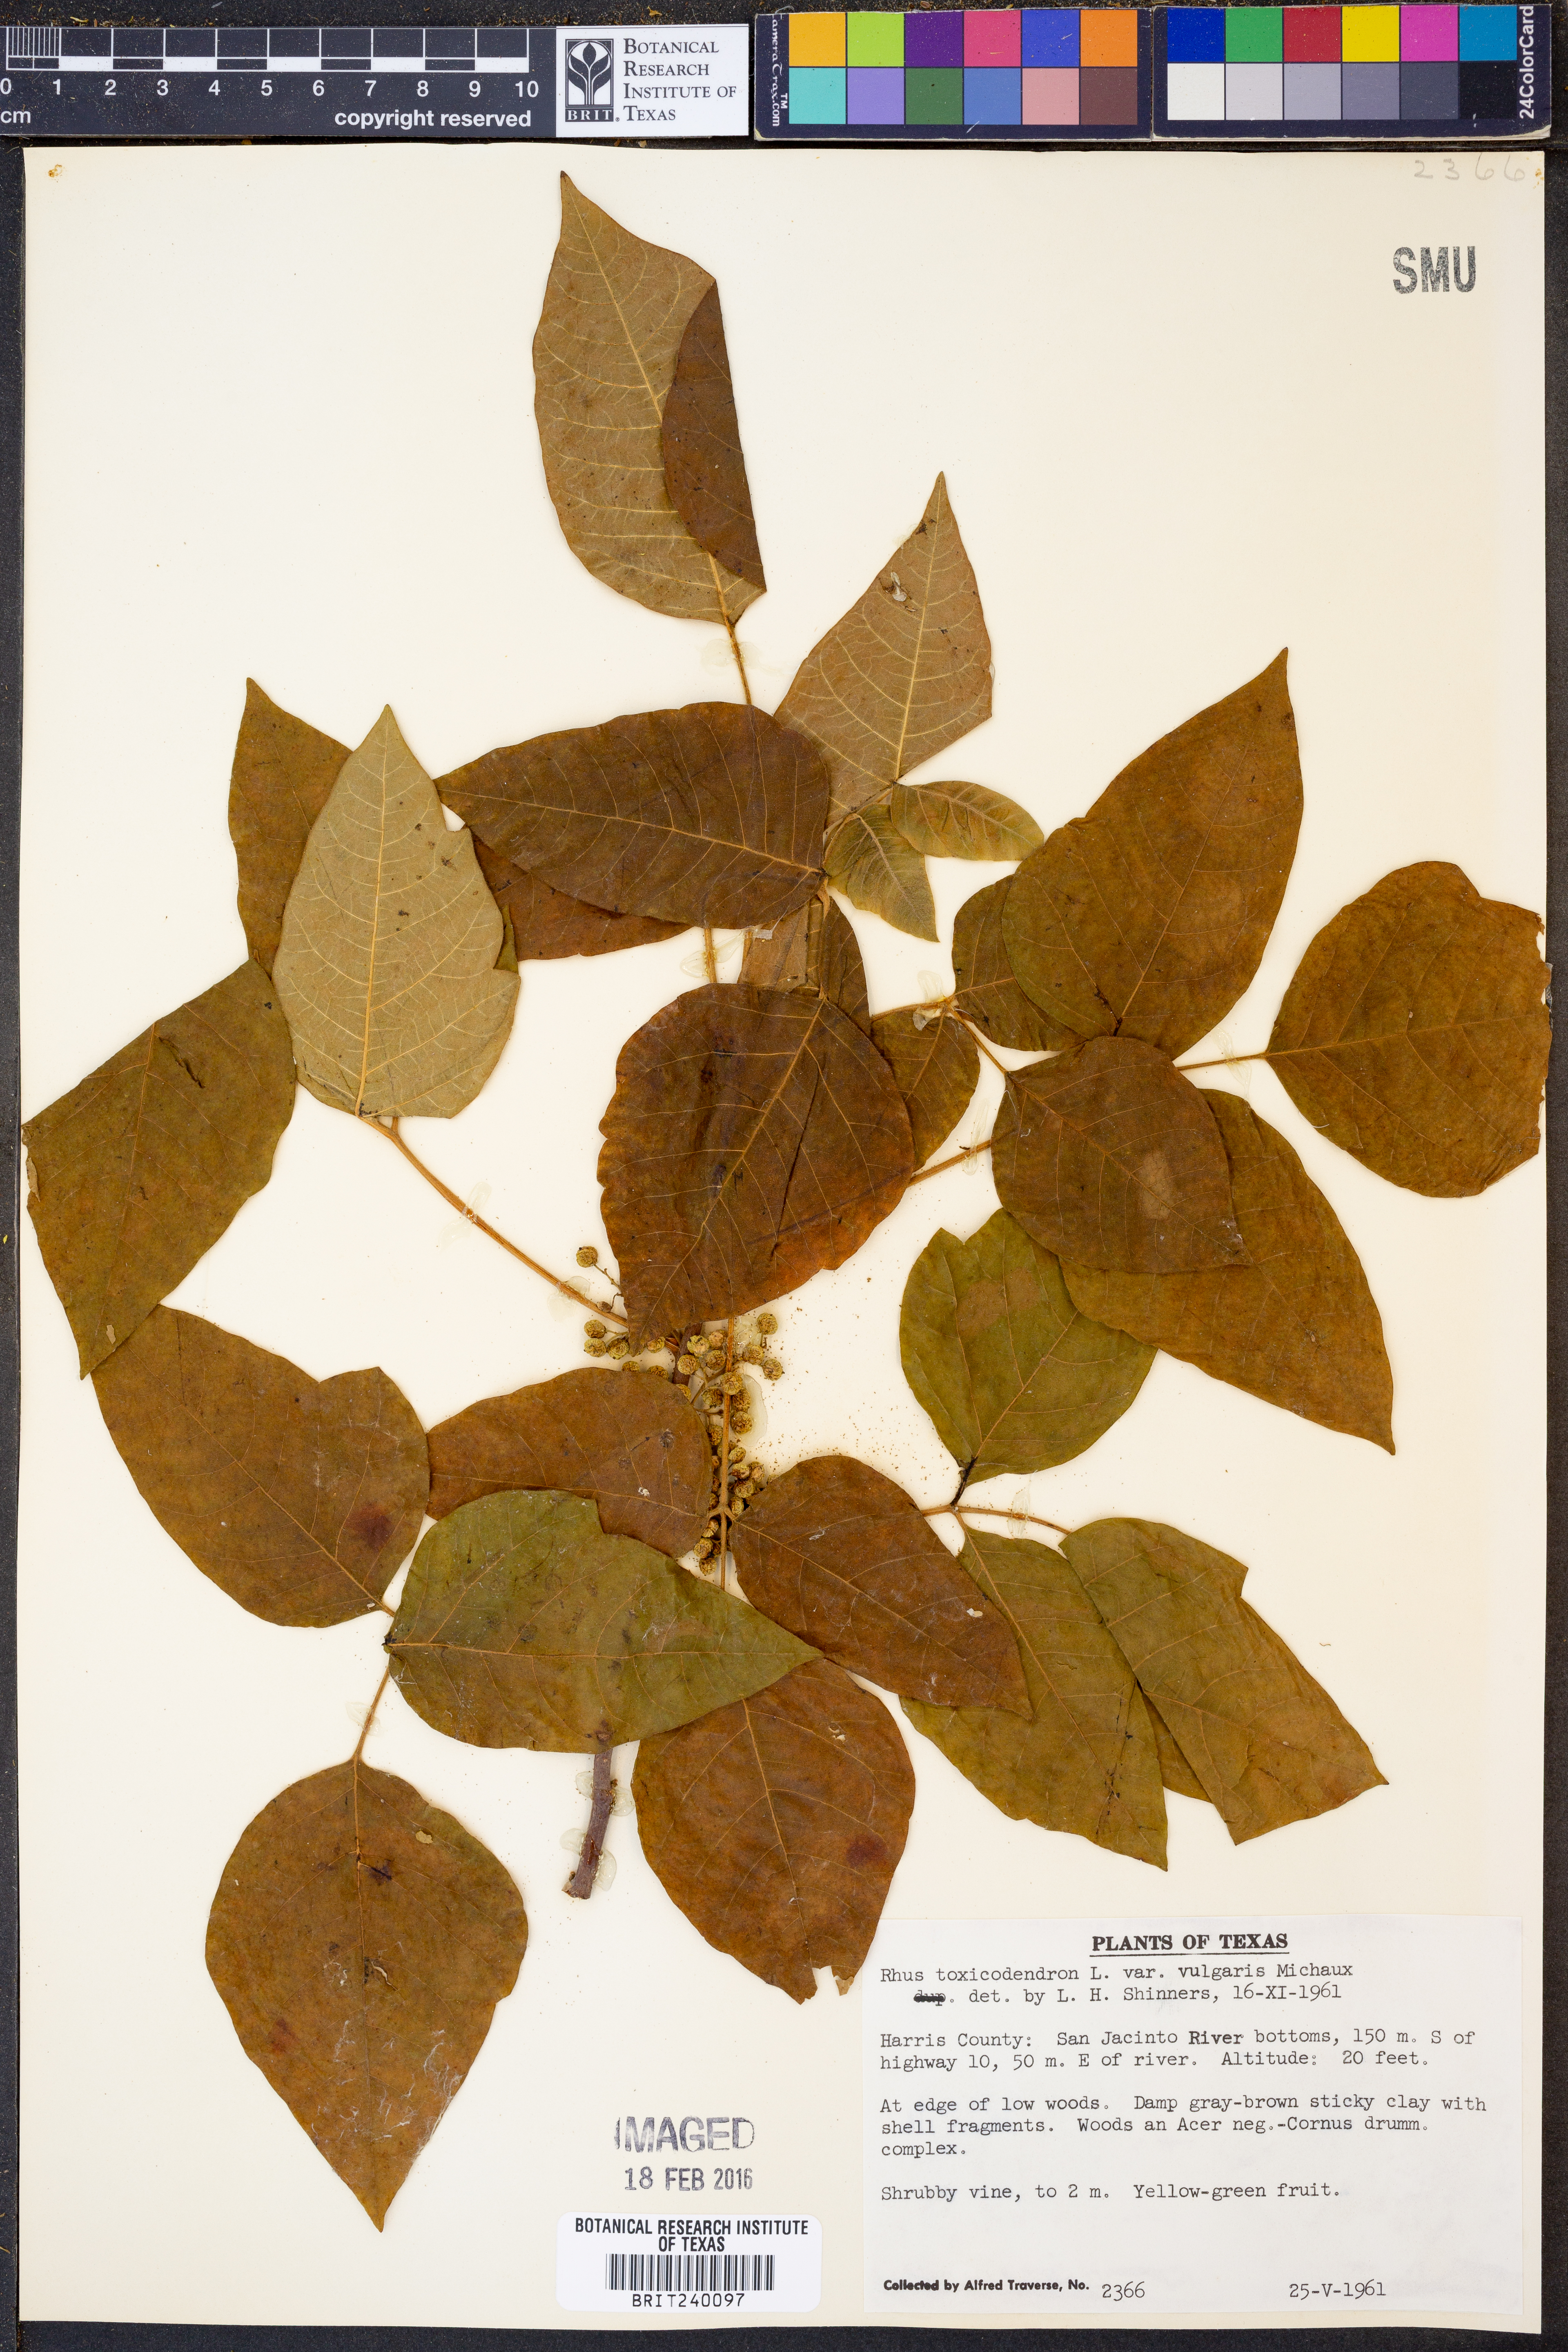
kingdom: Plantae
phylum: Tracheophyta
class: Magnoliopsida
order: Sapindales
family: Anacardiaceae
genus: Toxicodendron
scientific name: Toxicodendron rydbergii
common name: Rydberg's poison-ivy
